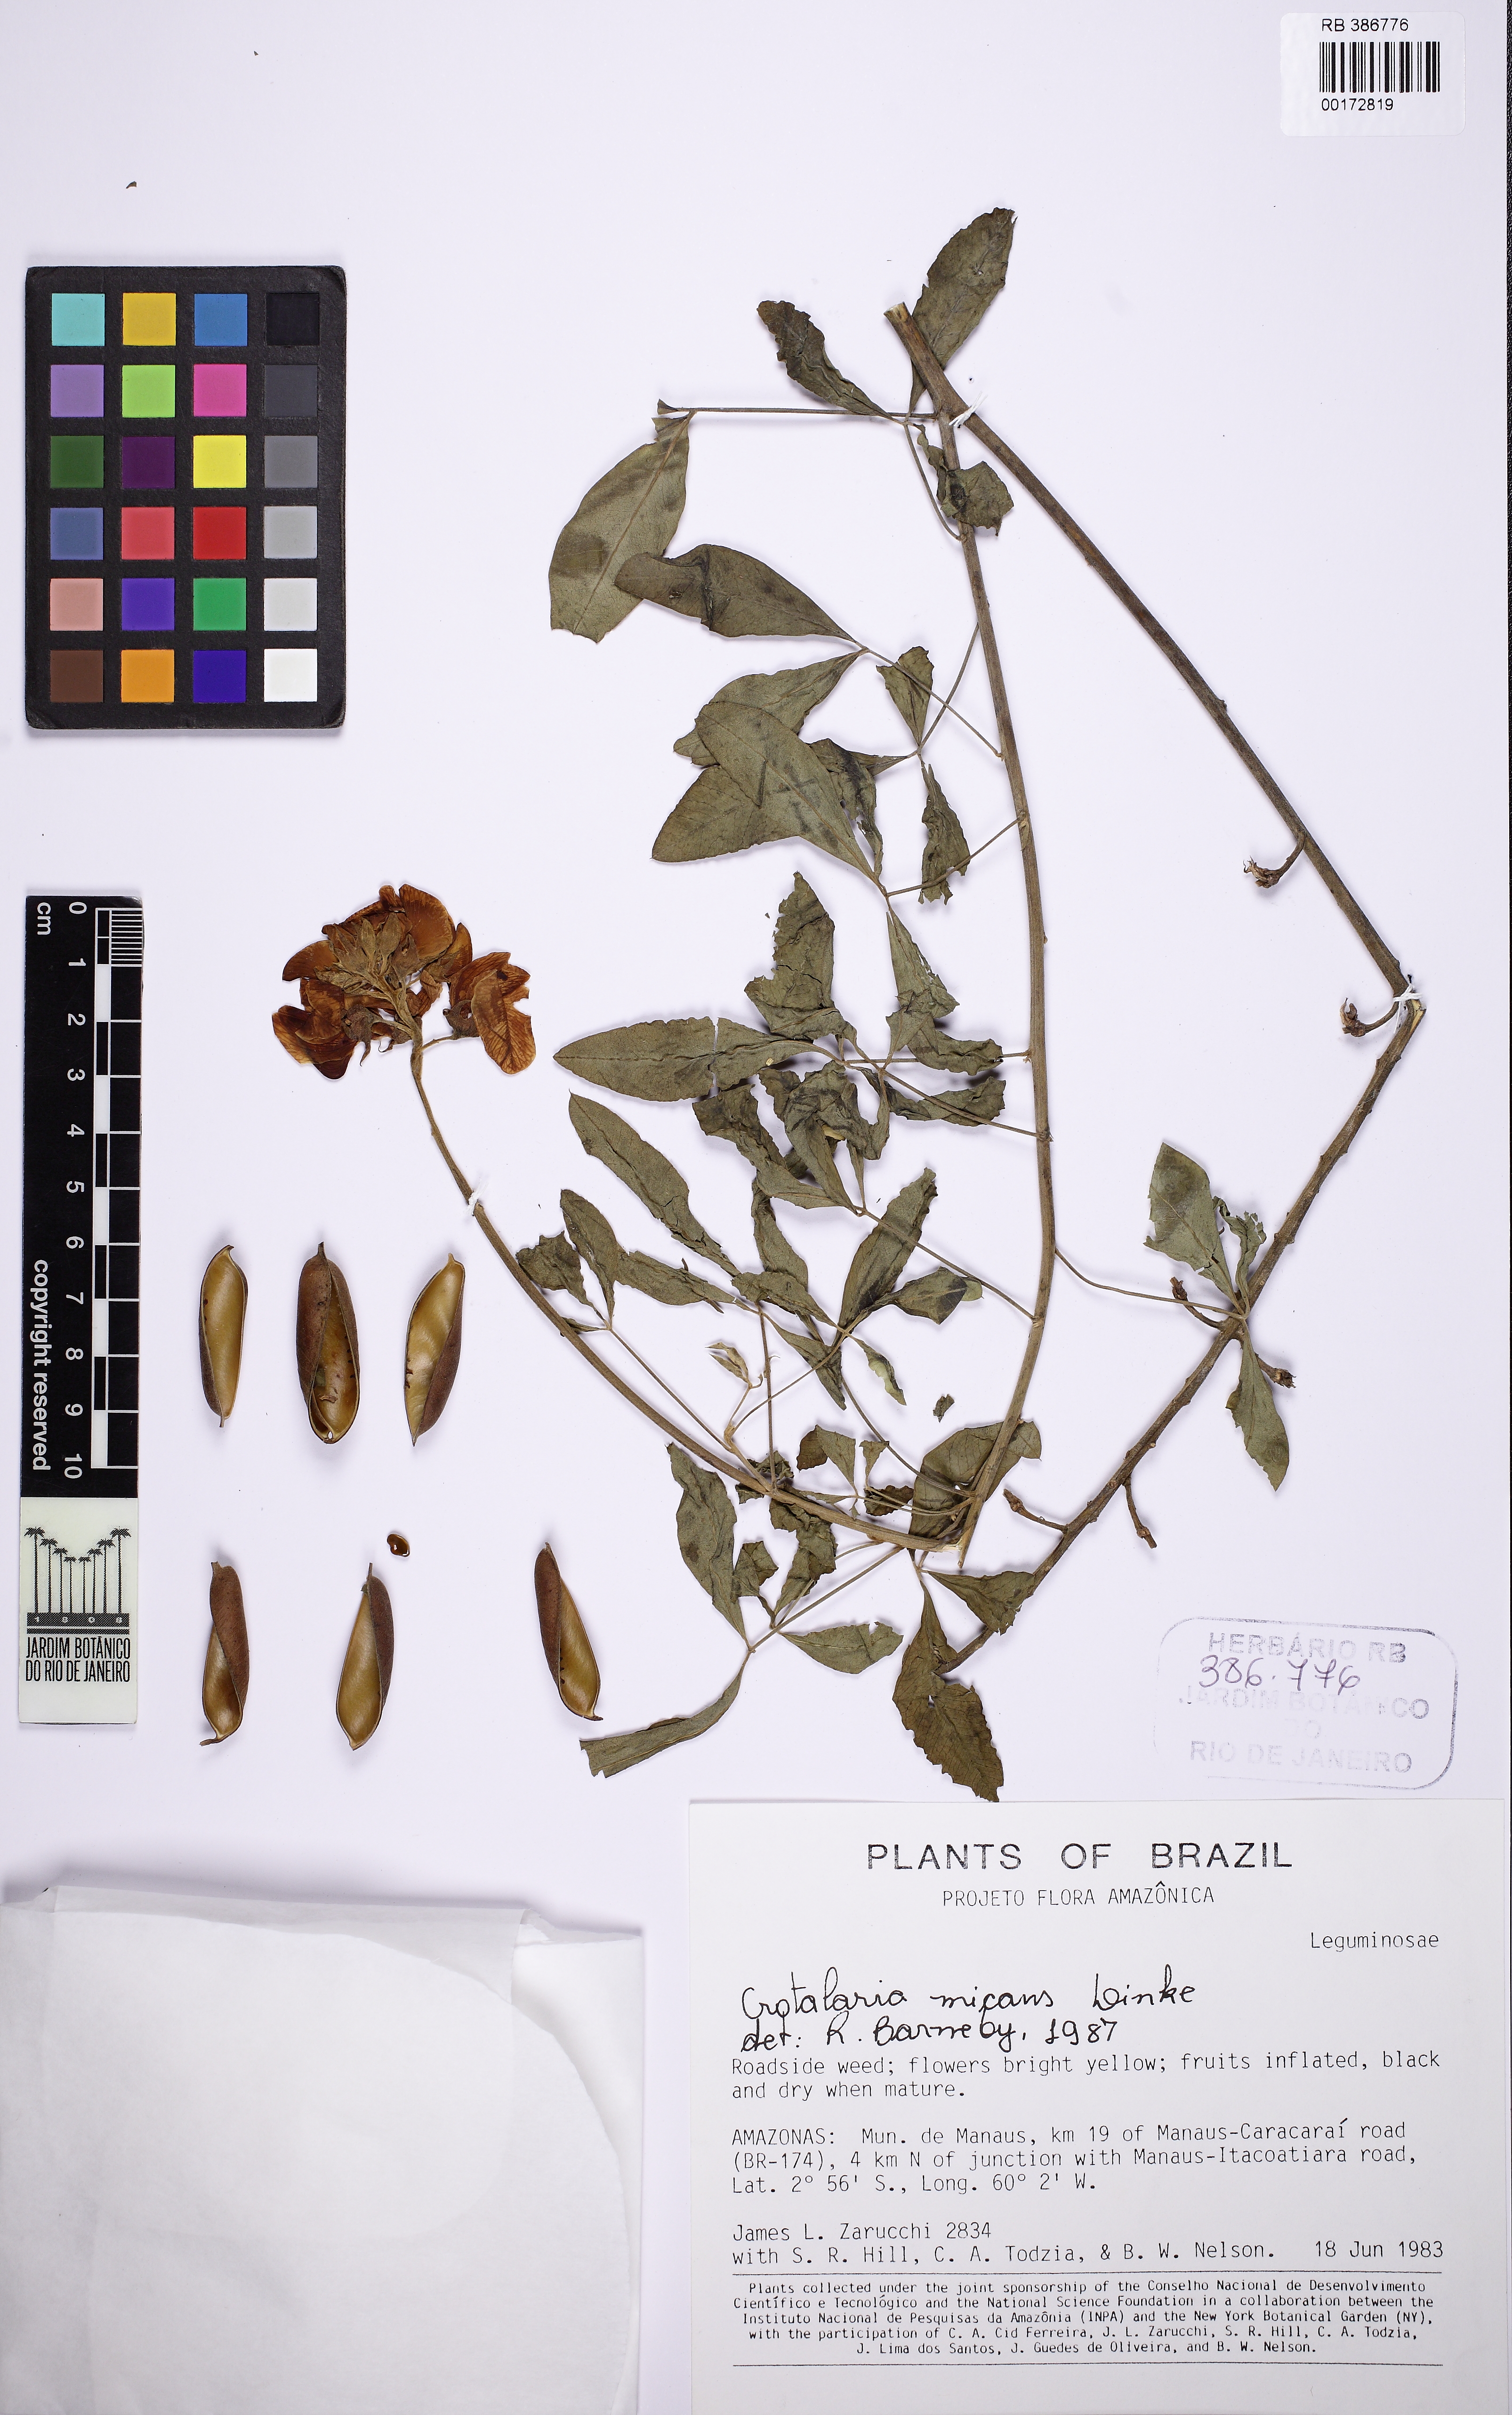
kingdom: Plantae
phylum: Tracheophyta
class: Magnoliopsida
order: Fabales
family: Fabaceae
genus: Crotalaria
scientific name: Crotalaria micans
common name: Caracas rattlebox
